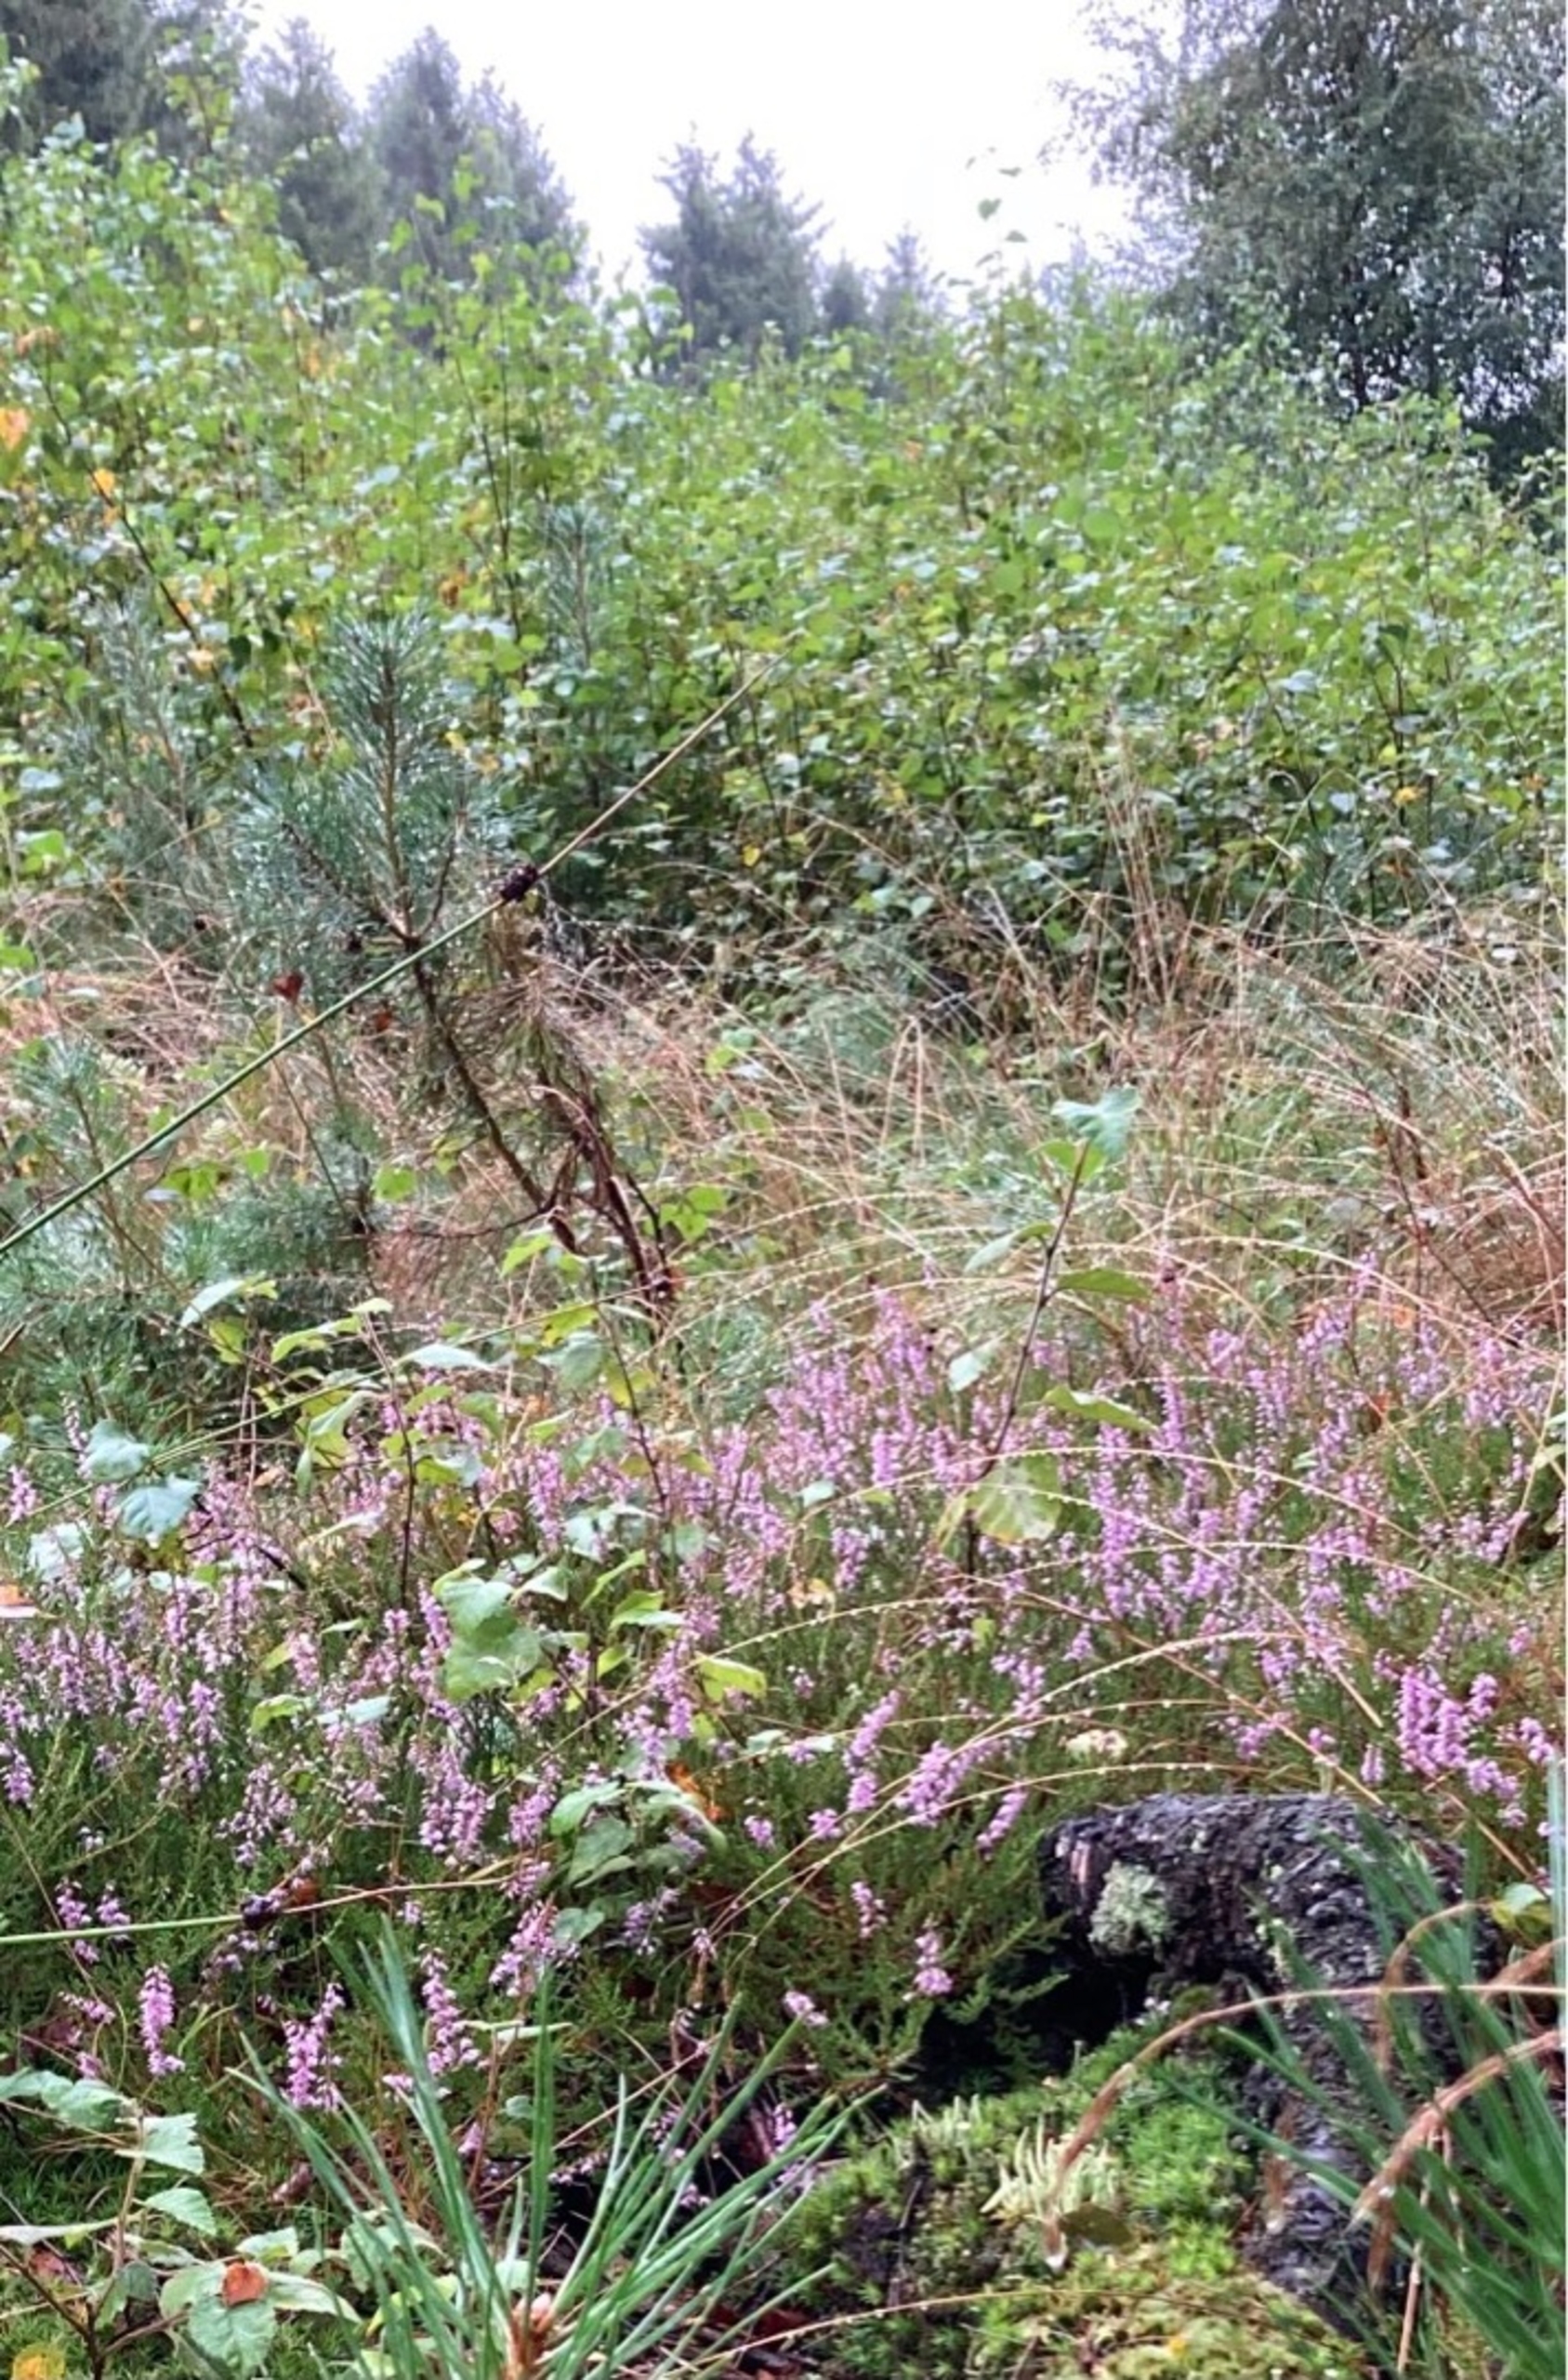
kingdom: Plantae
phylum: Tracheophyta
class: Magnoliopsida
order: Ericales
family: Ericaceae
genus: Calluna
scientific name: Calluna vulgaris
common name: Hedelyng
